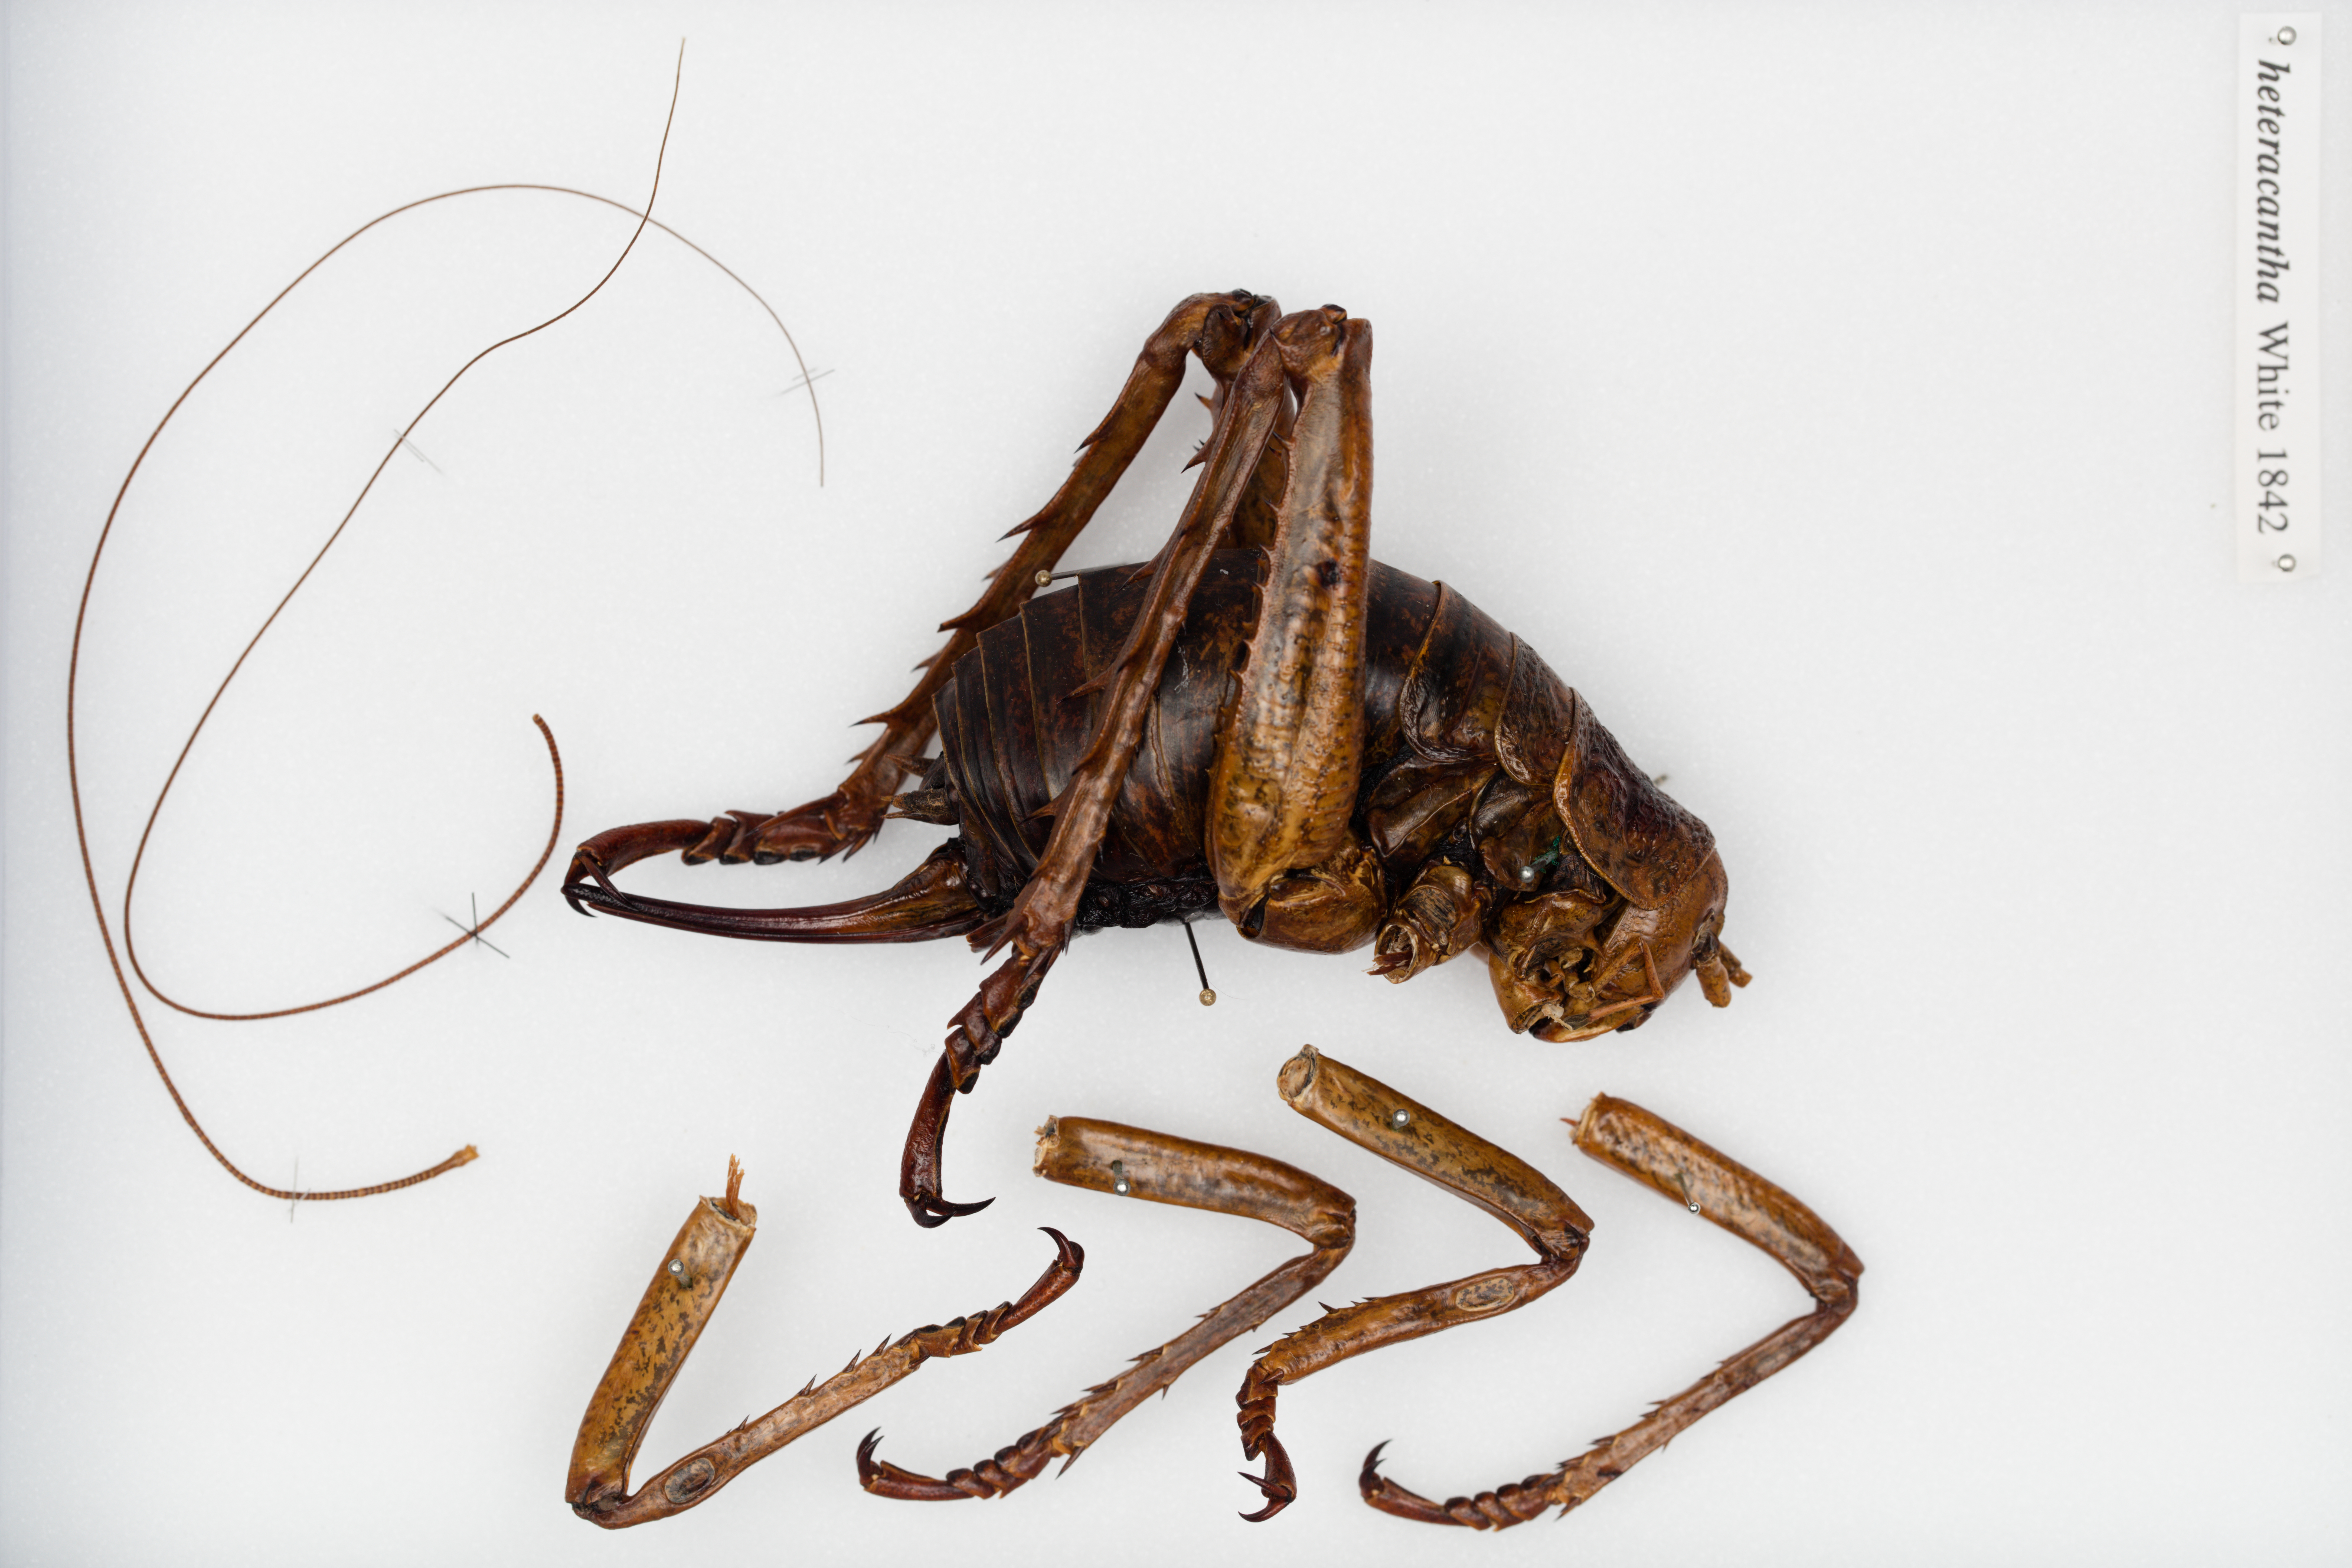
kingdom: Animalia
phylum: Arthropoda
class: Insecta
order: Orthoptera
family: Anostostomatidae
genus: Deinacrida
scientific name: Deinacrida heteracantha
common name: Wetapunga
